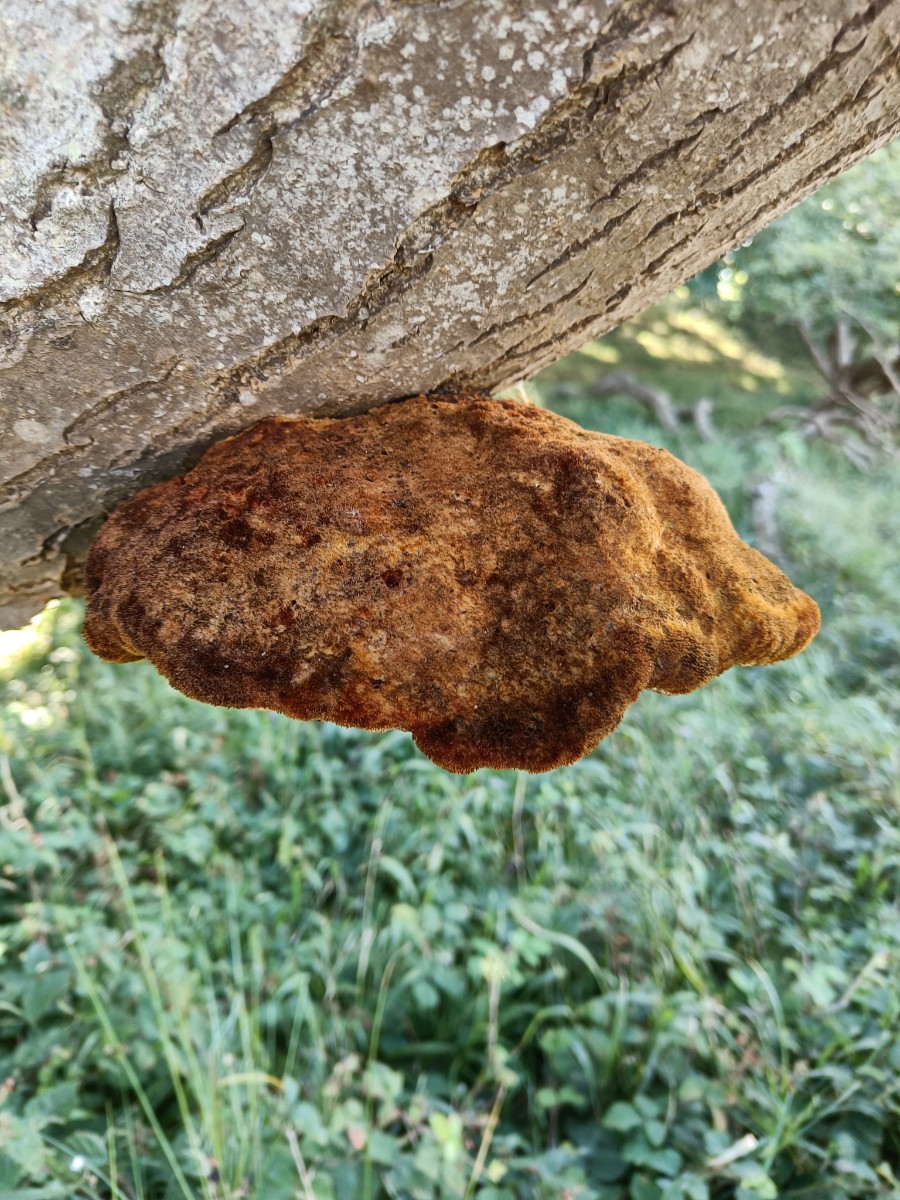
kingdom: Fungi
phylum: Basidiomycota
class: Agaricomycetes
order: Hymenochaetales
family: Hymenochaetaceae
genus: Inonotus
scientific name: Inonotus hispidus
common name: børstehåret spejlporesvamp
